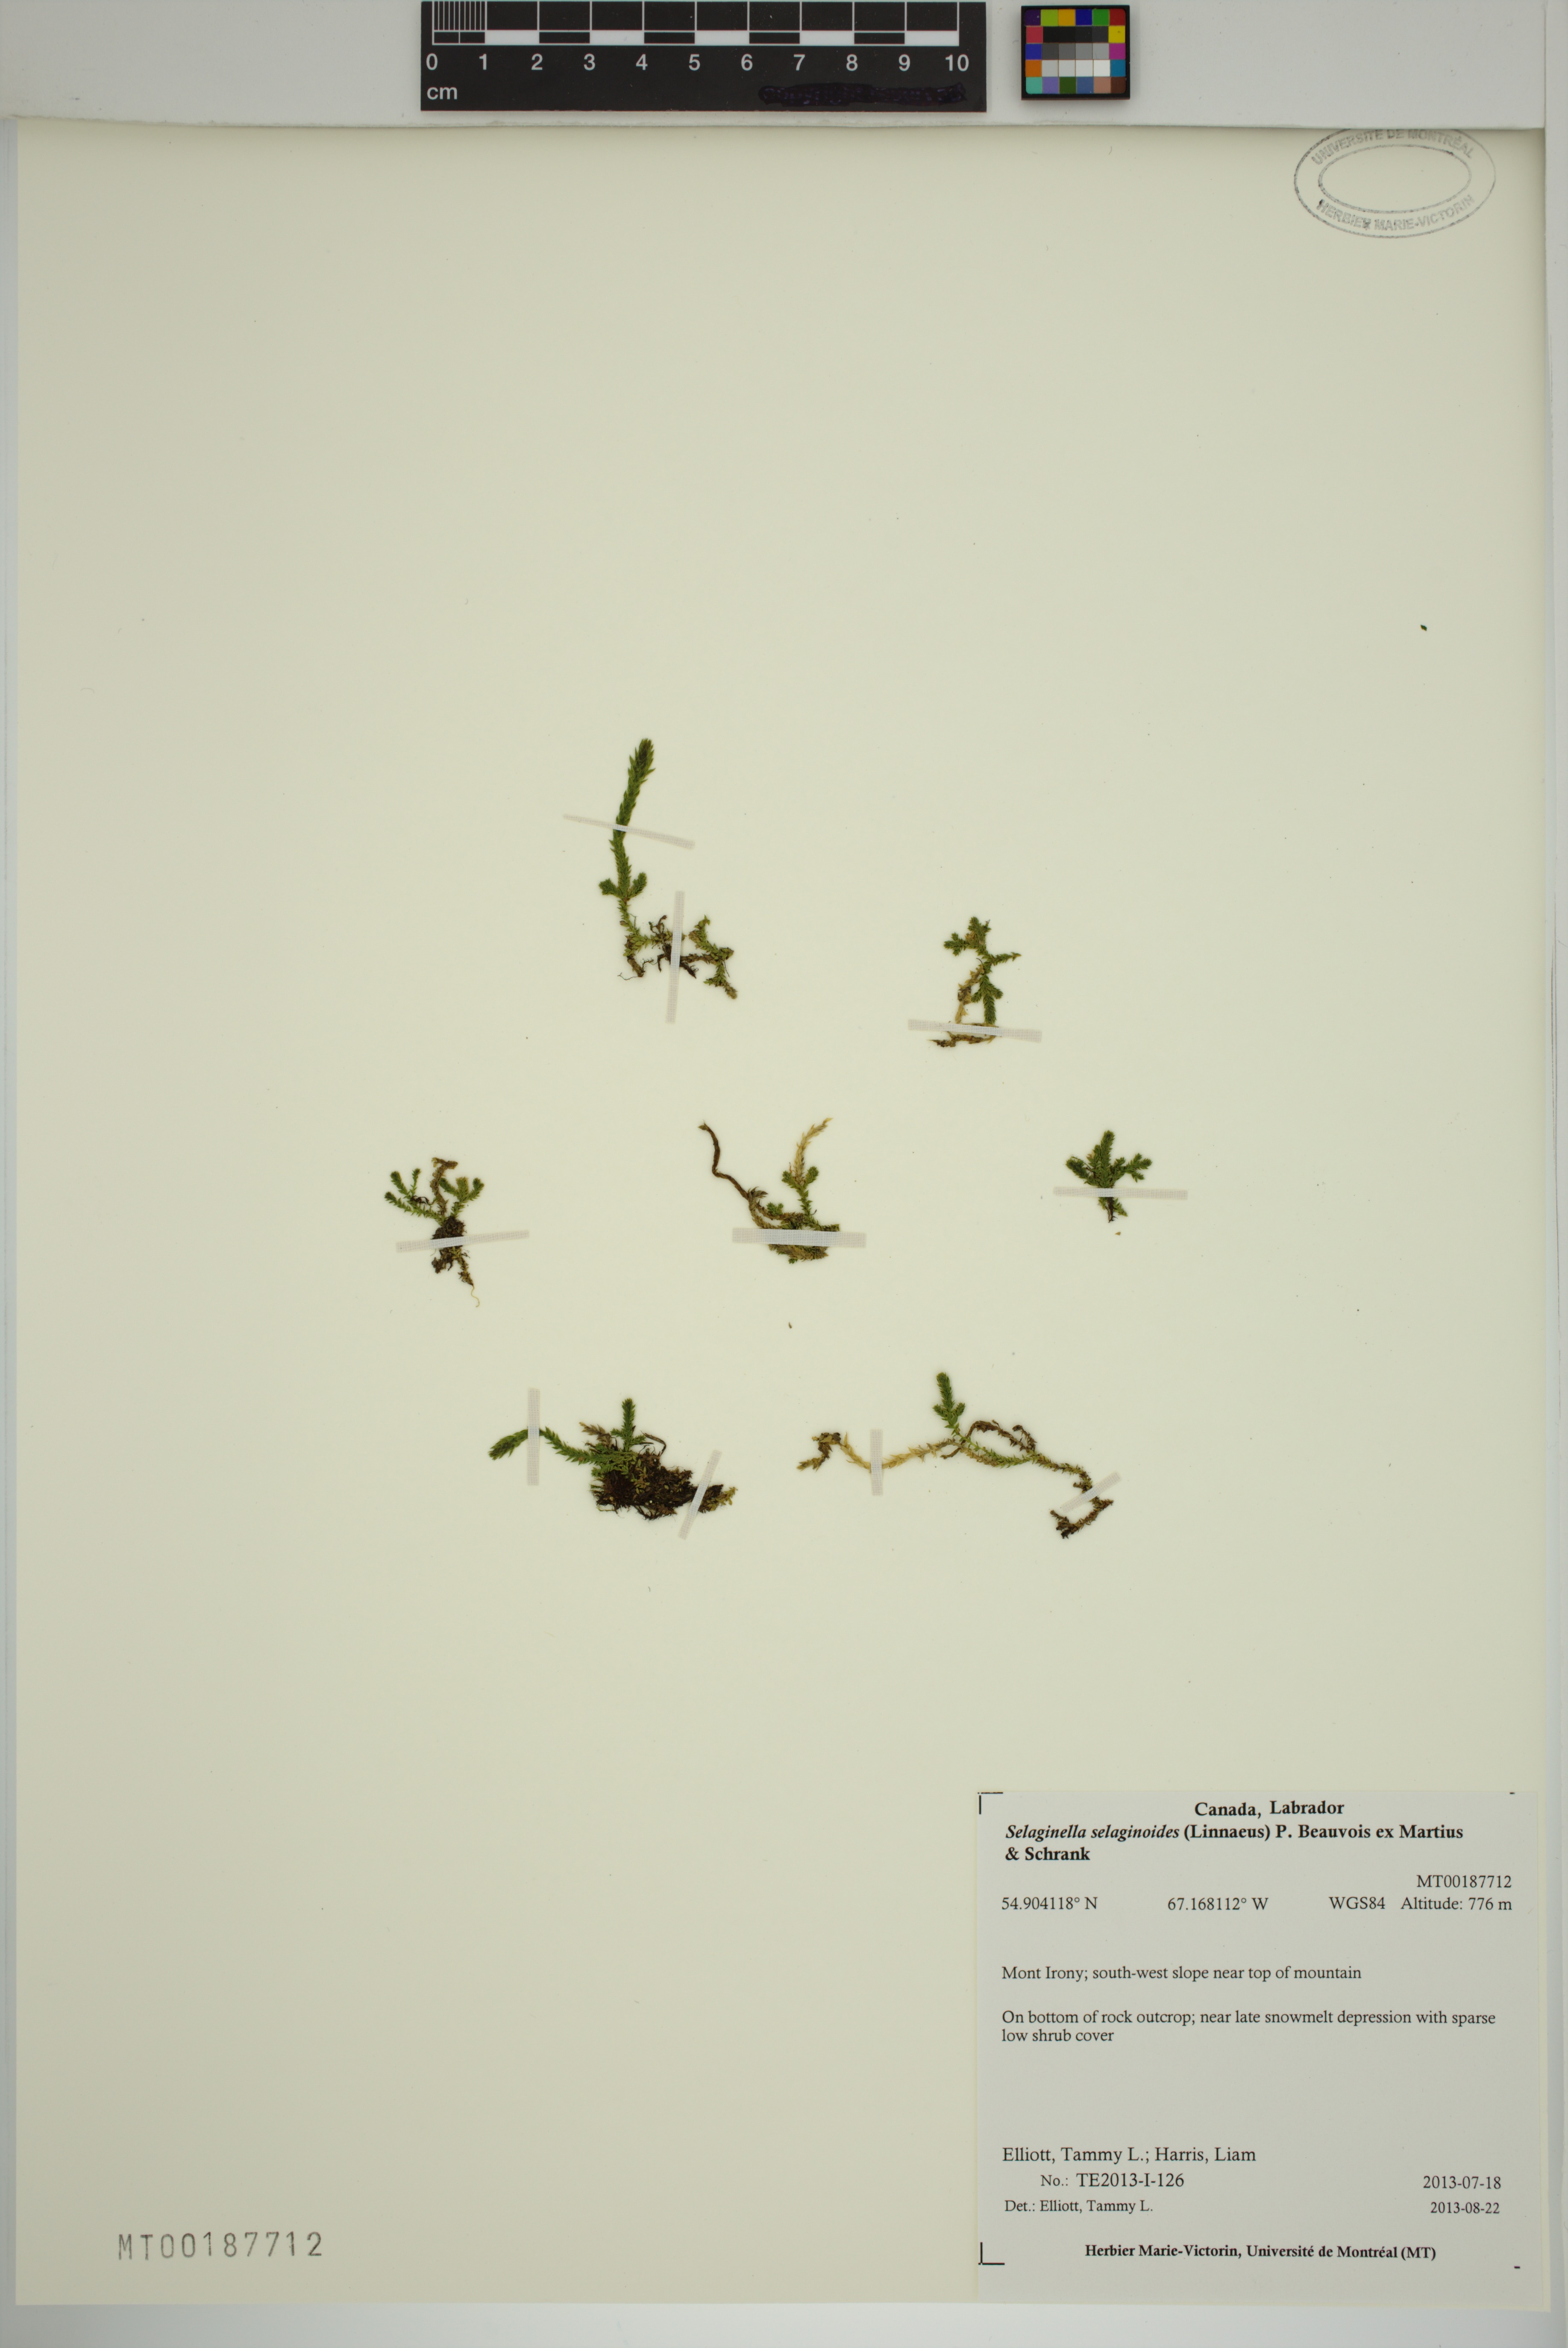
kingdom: Plantae
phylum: Tracheophyta
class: Lycopodiopsida
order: Selaginellales
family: Selaginellaceae
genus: Selaginella
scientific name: Selaginella selaginoides
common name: Prickly mountain-moss
